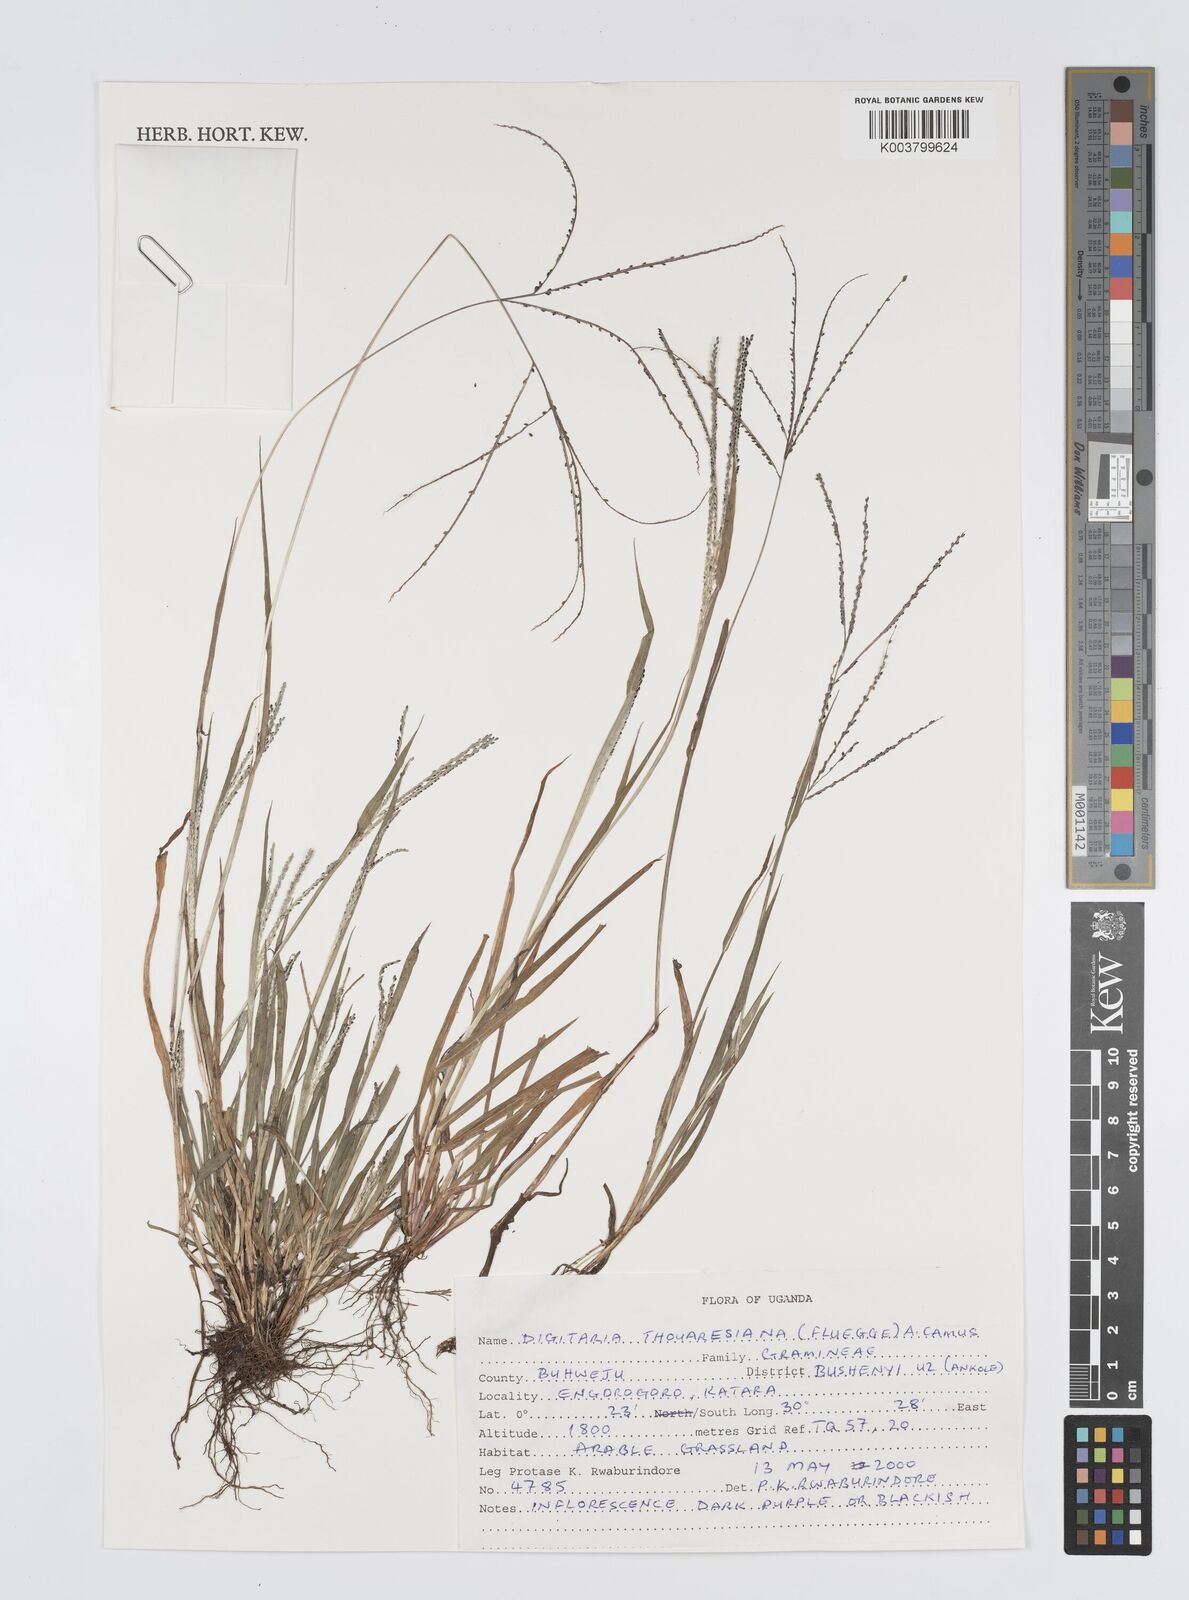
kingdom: Plantae
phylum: Tracheophyta
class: Liliopsida
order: Poales
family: Poaceae
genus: Digitaria
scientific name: Digitaria thouarsiana
